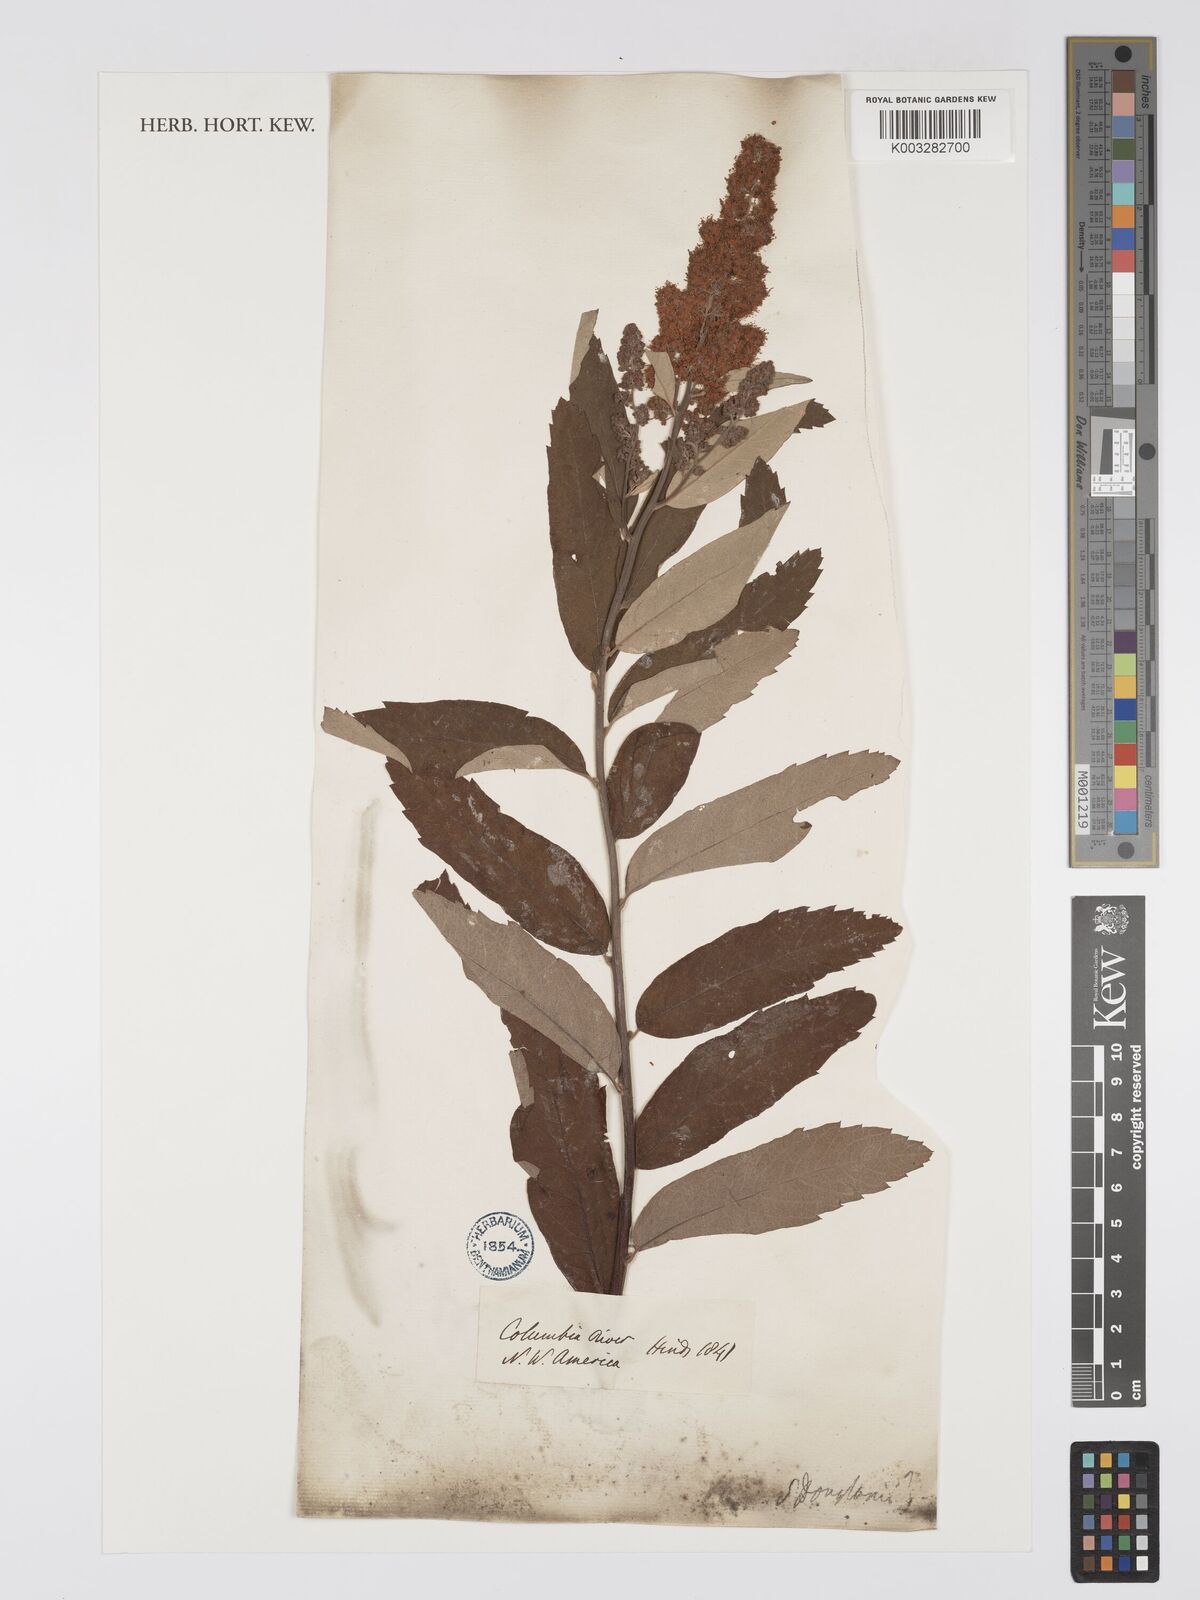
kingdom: Plantae
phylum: Tracheophyta
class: Magnoliopsida
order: Rosales
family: Rosaceae
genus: Spiraea
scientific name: Spiraea
